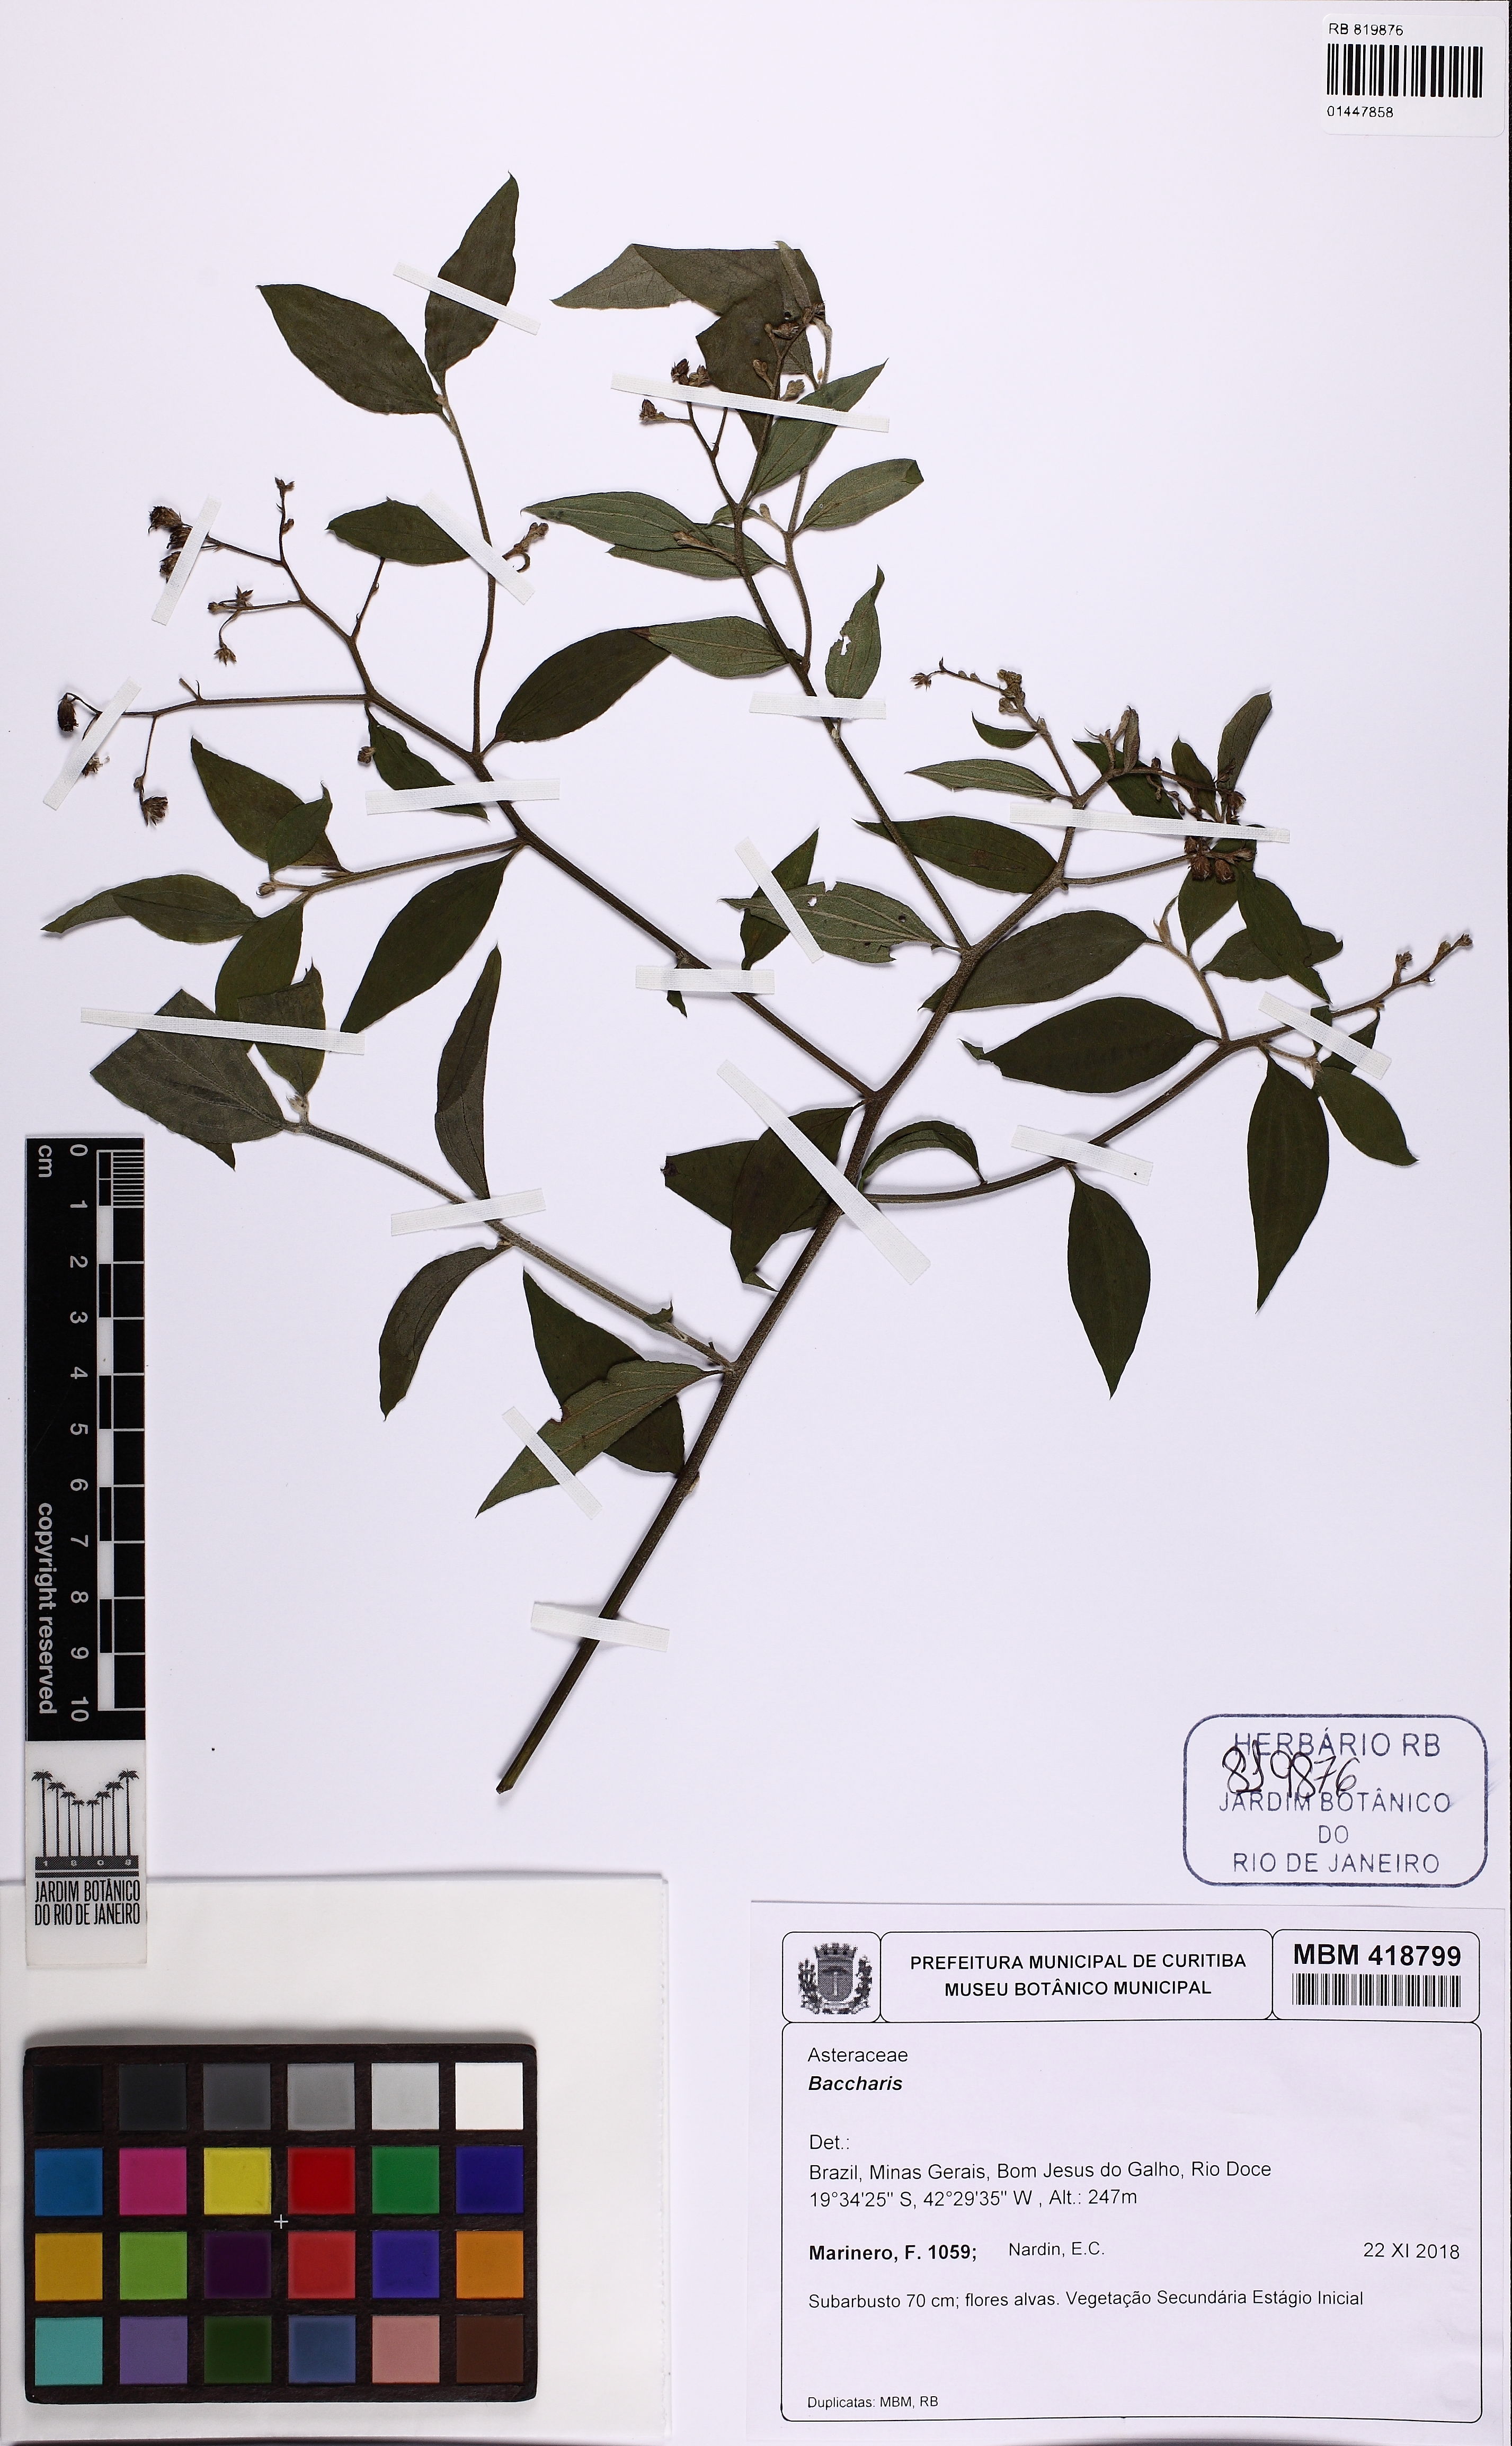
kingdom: Plantae
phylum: Tracheophyta
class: Magnoliopsida
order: Asterales
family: Asteraceae
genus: Baccharis
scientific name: Baccharis
